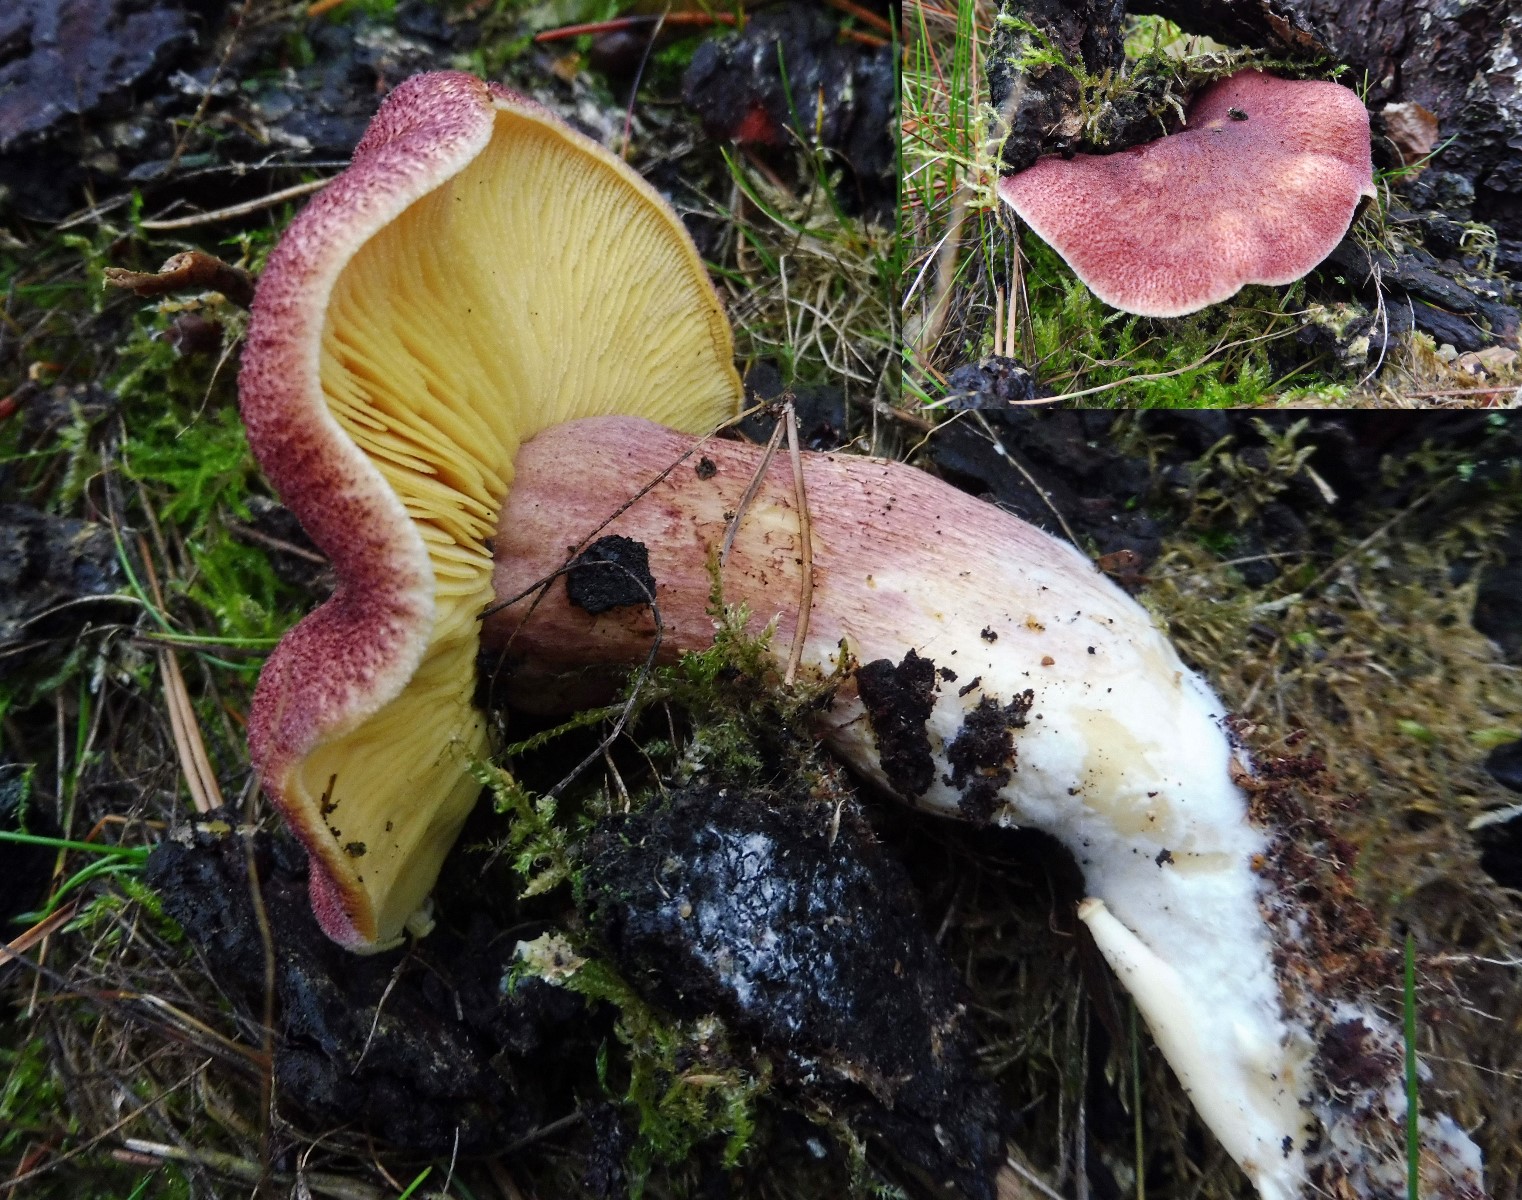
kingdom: Fungi
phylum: Basidiomycota
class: Agaricomycetes
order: Agaricales
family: Tricholomataceae
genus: Tricholomopsis
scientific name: Tricholomopsis rutilans
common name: purpur-væbnerhat
